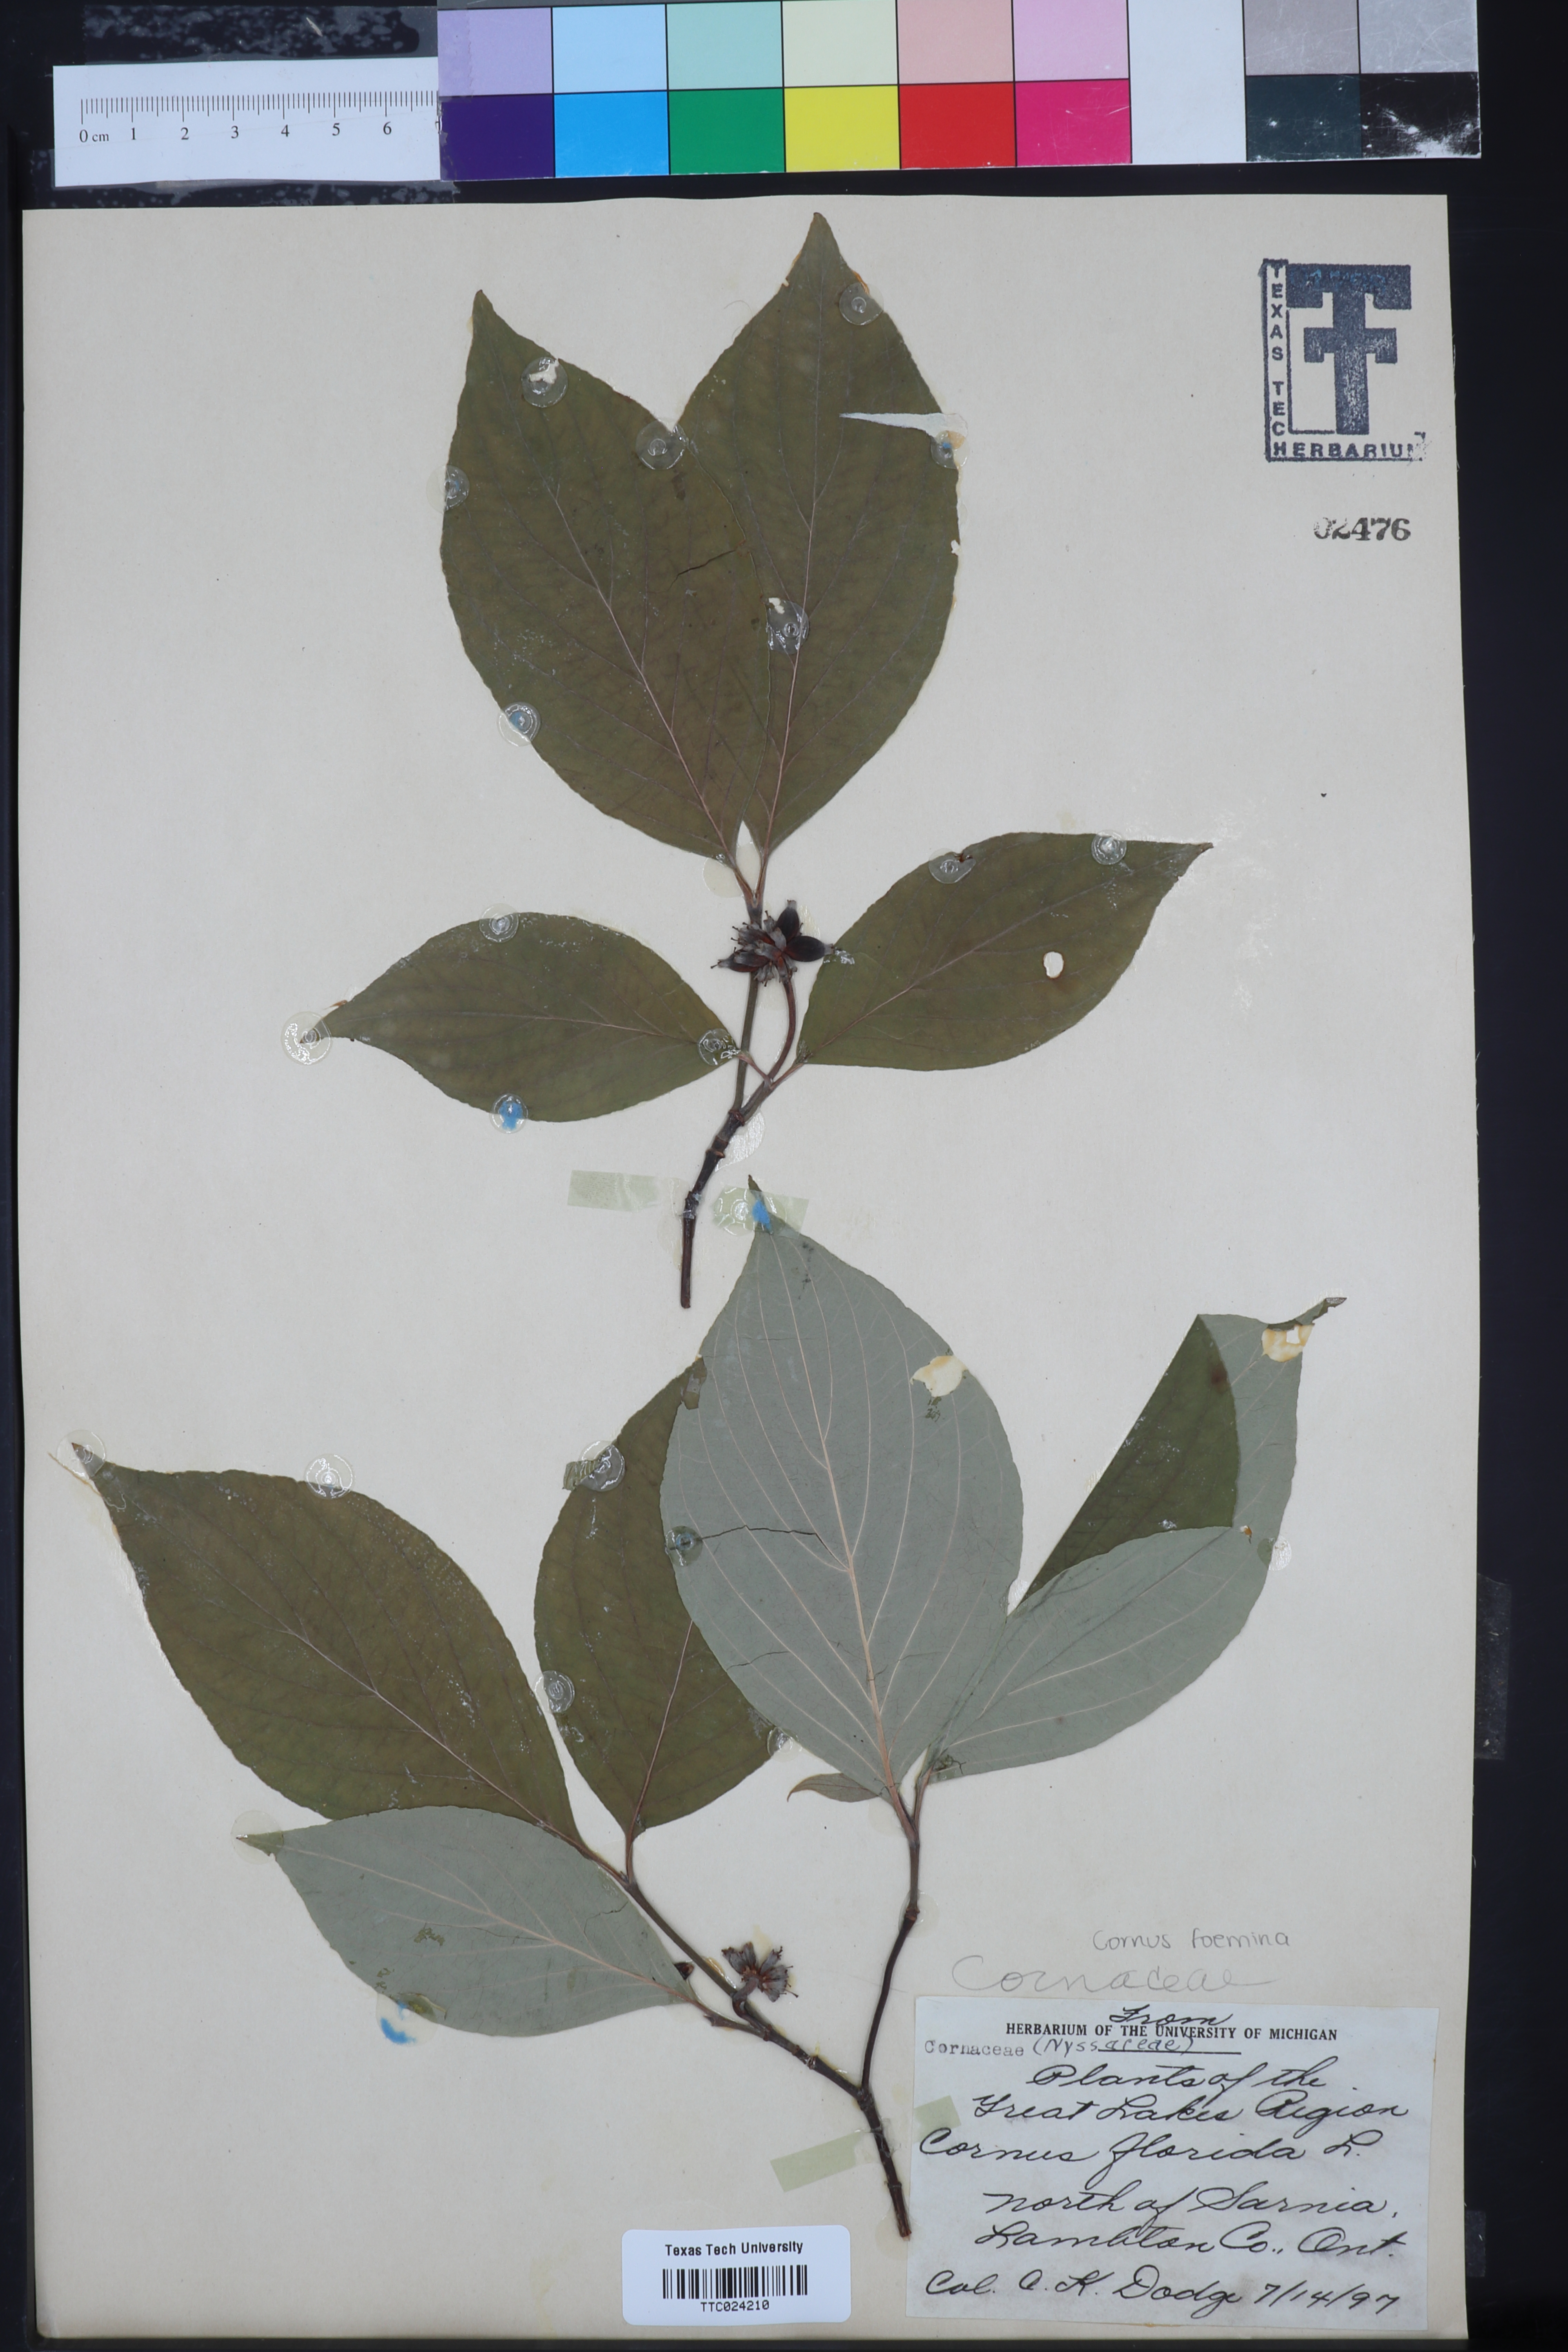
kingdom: Plantae
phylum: Tracheophyta
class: Magnoliopsida
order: Cornales
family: Cornaceae
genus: Cornus
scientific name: Cornus foemina
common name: Swamp dogwood
